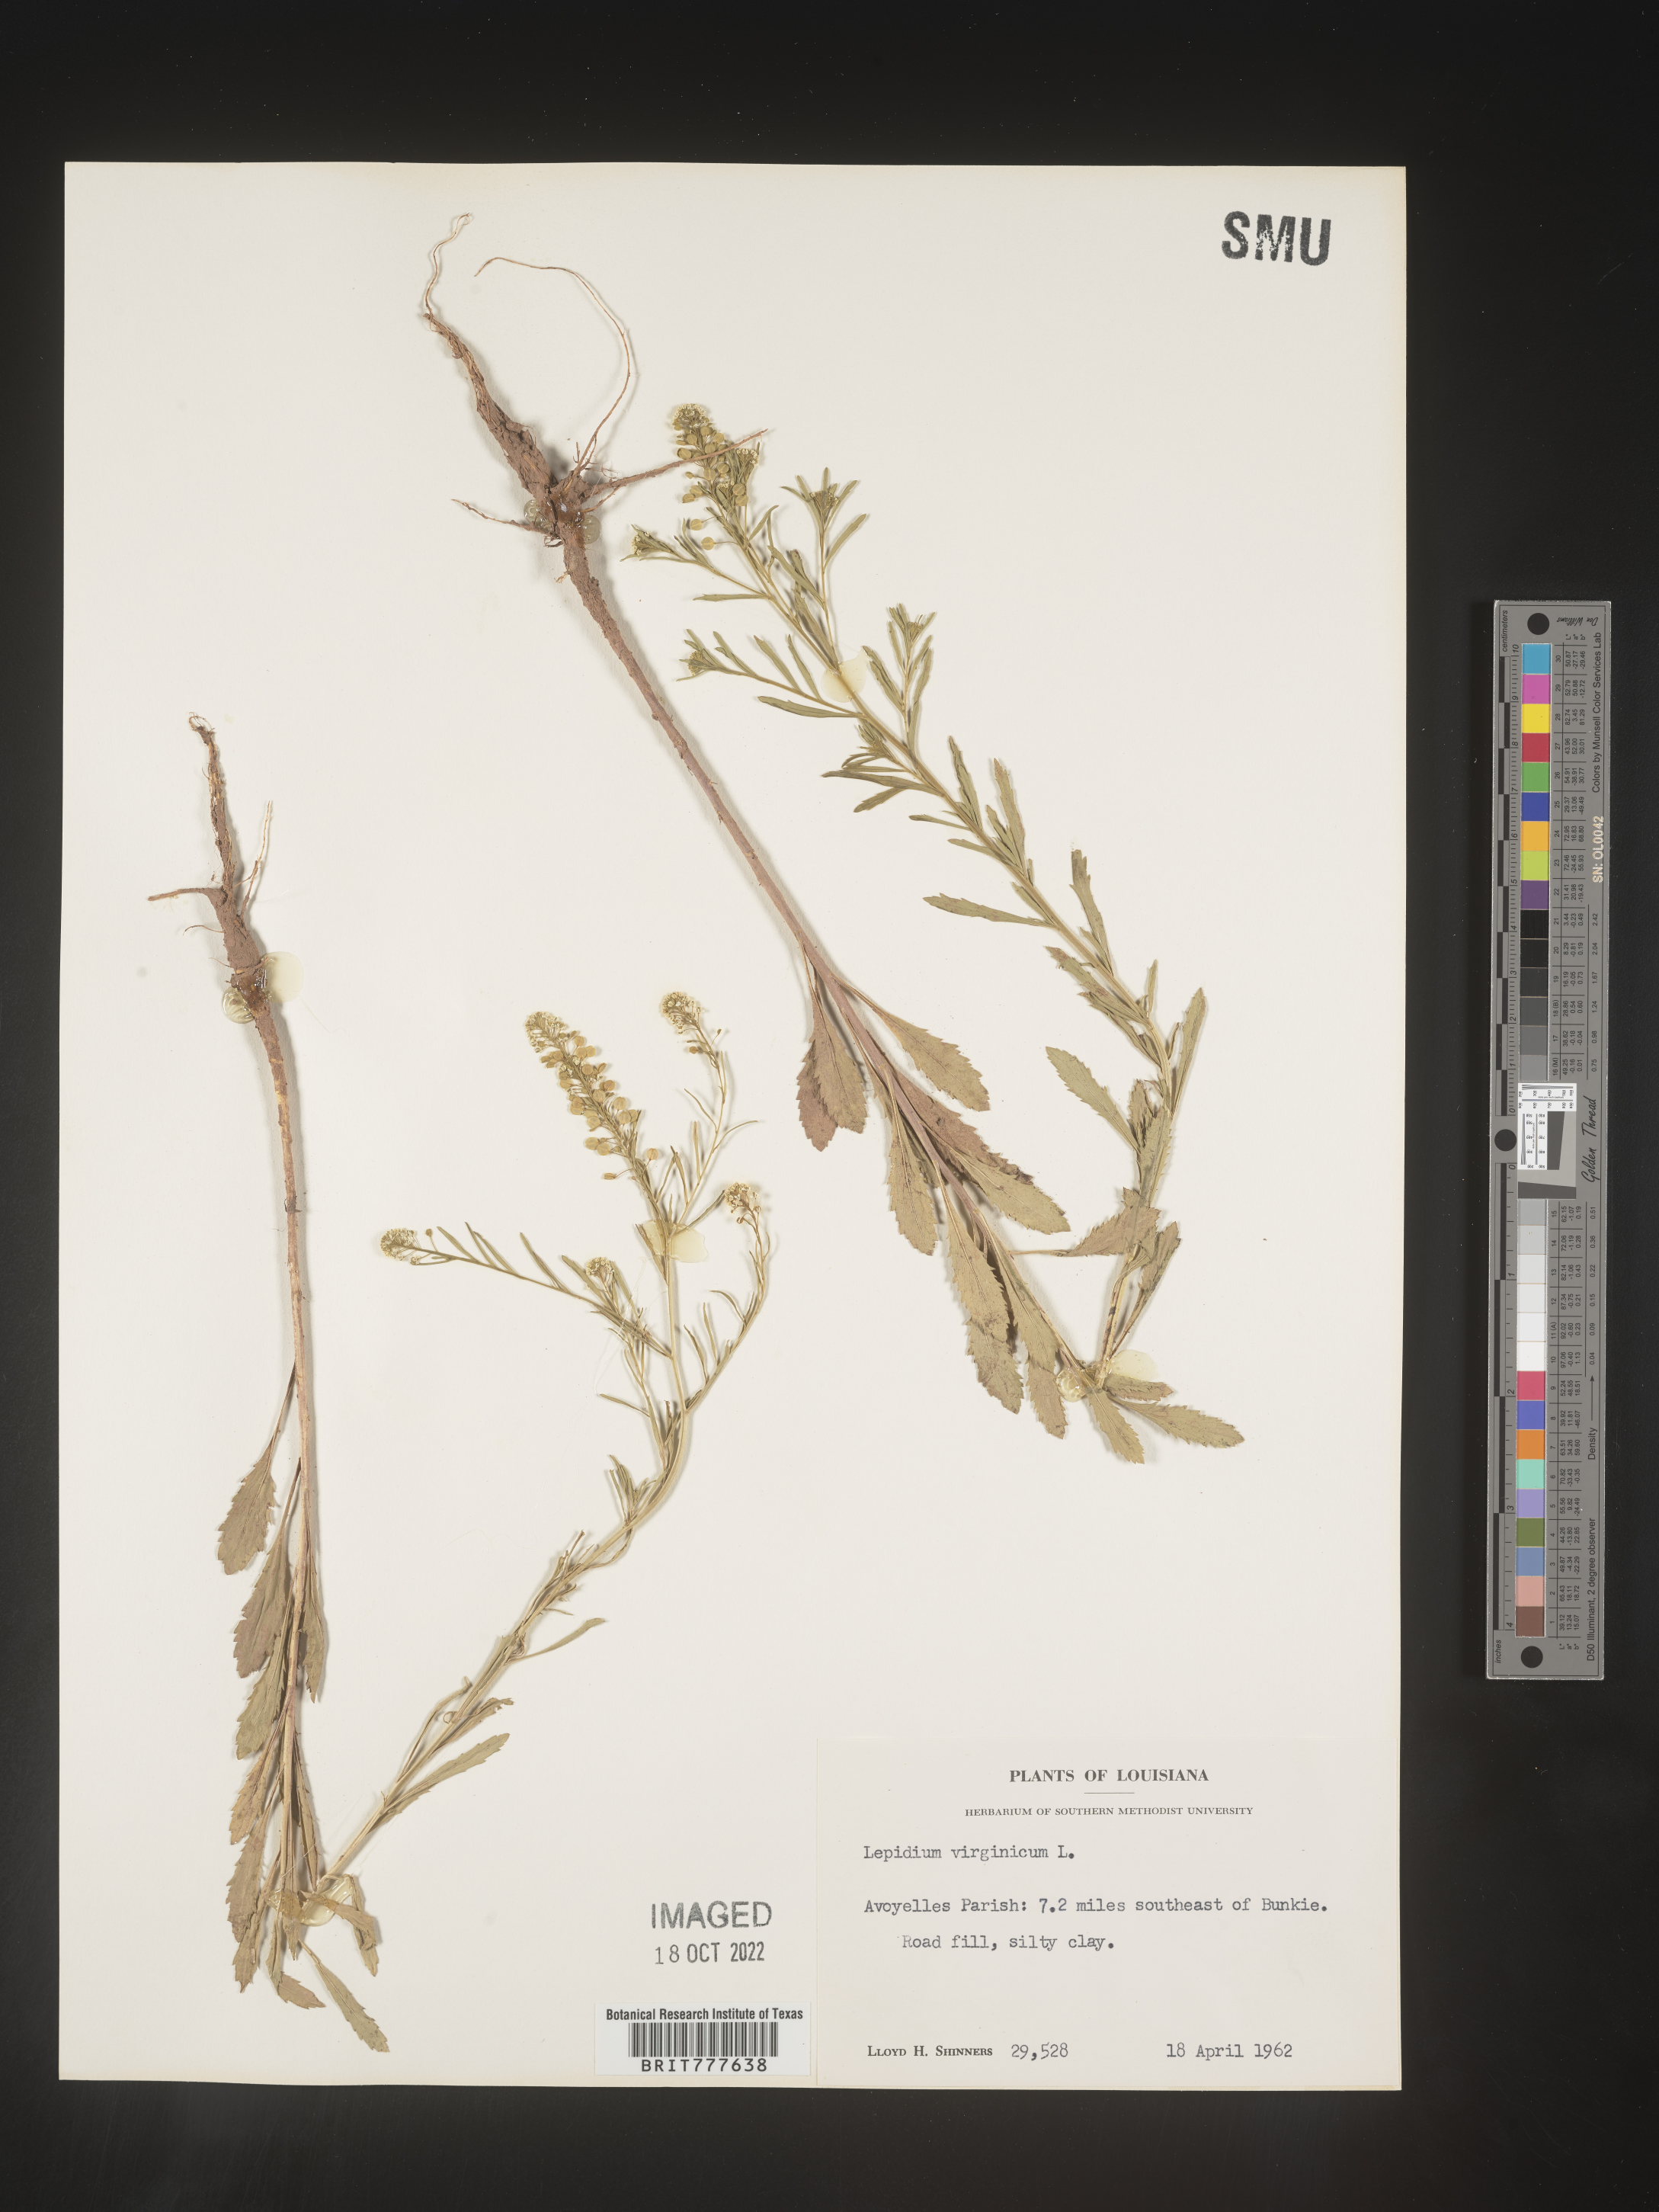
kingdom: Plantae
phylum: Tracheophyta
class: Magnoliopsida
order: Brassicales
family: Brassicaceae
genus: Lepidium
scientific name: Lepidium virginicum
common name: Least pepperwort
